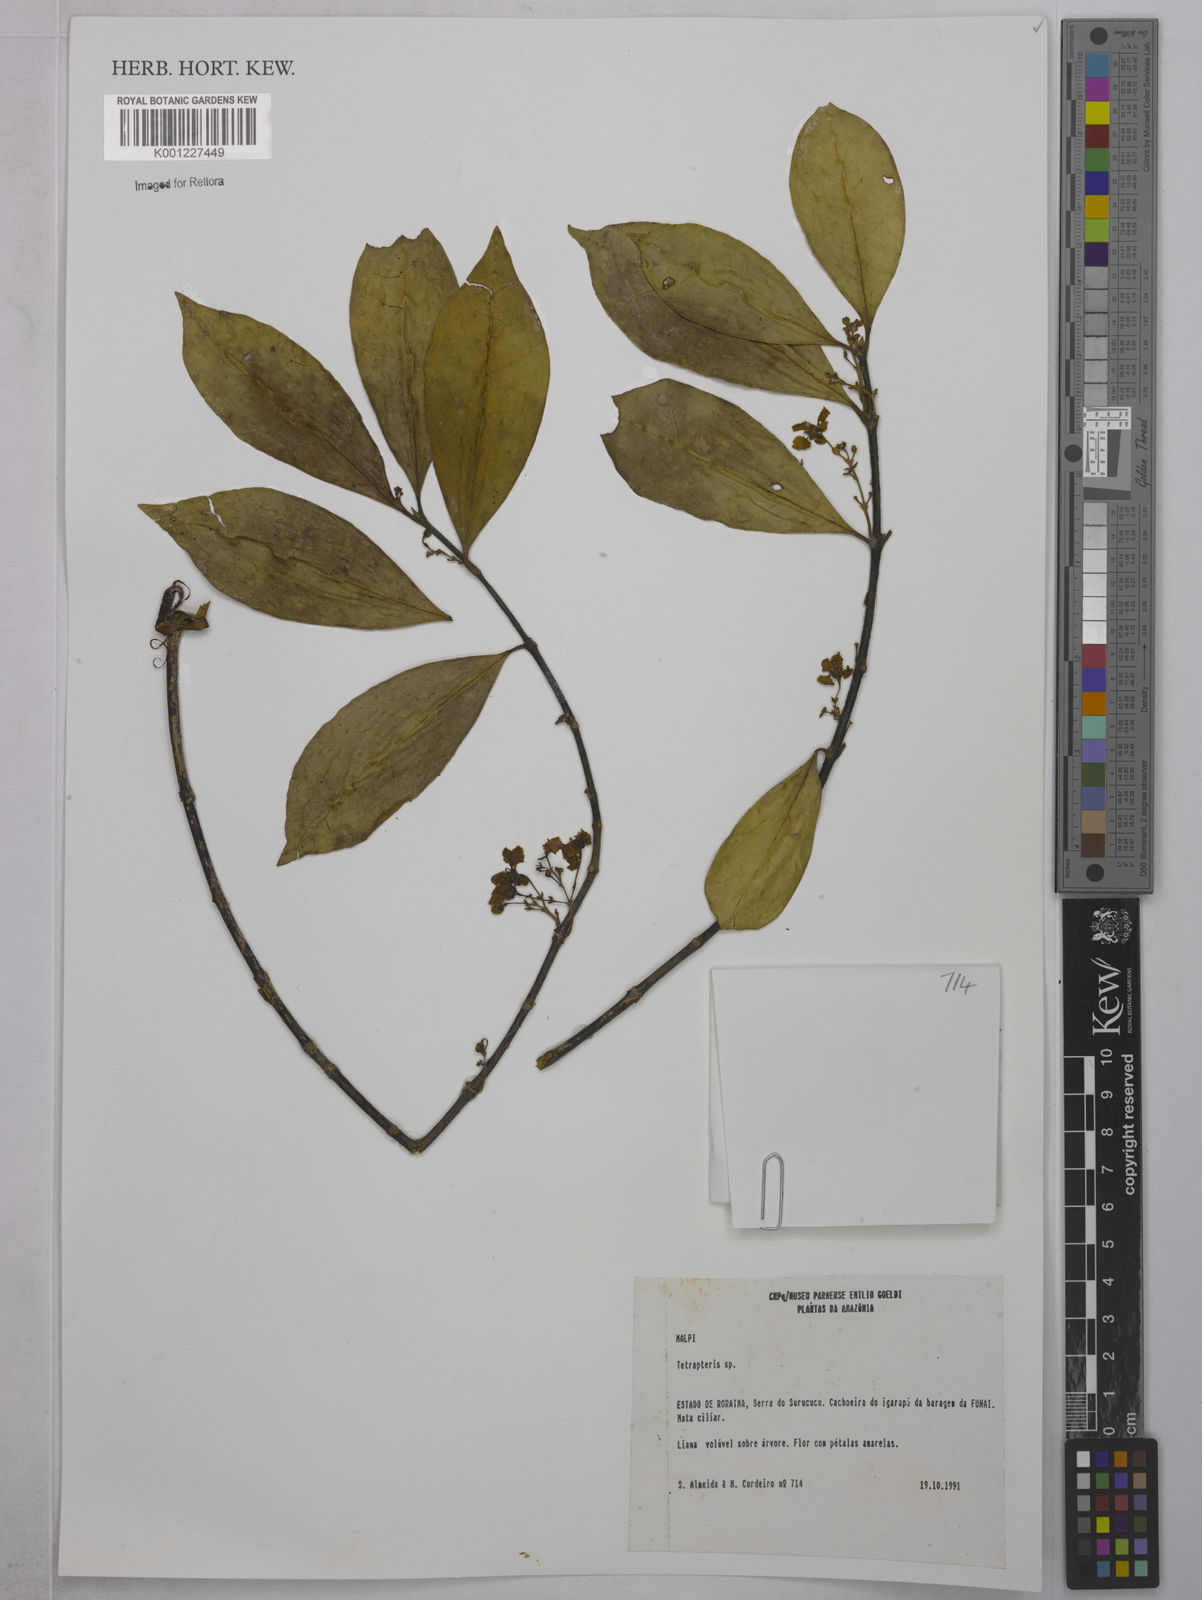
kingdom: Plantae
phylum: Tracheophyta
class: Magnoliopsida
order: Malpighiales
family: Malpighiaceae
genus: Tetrapterys
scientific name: Tetrapterys
